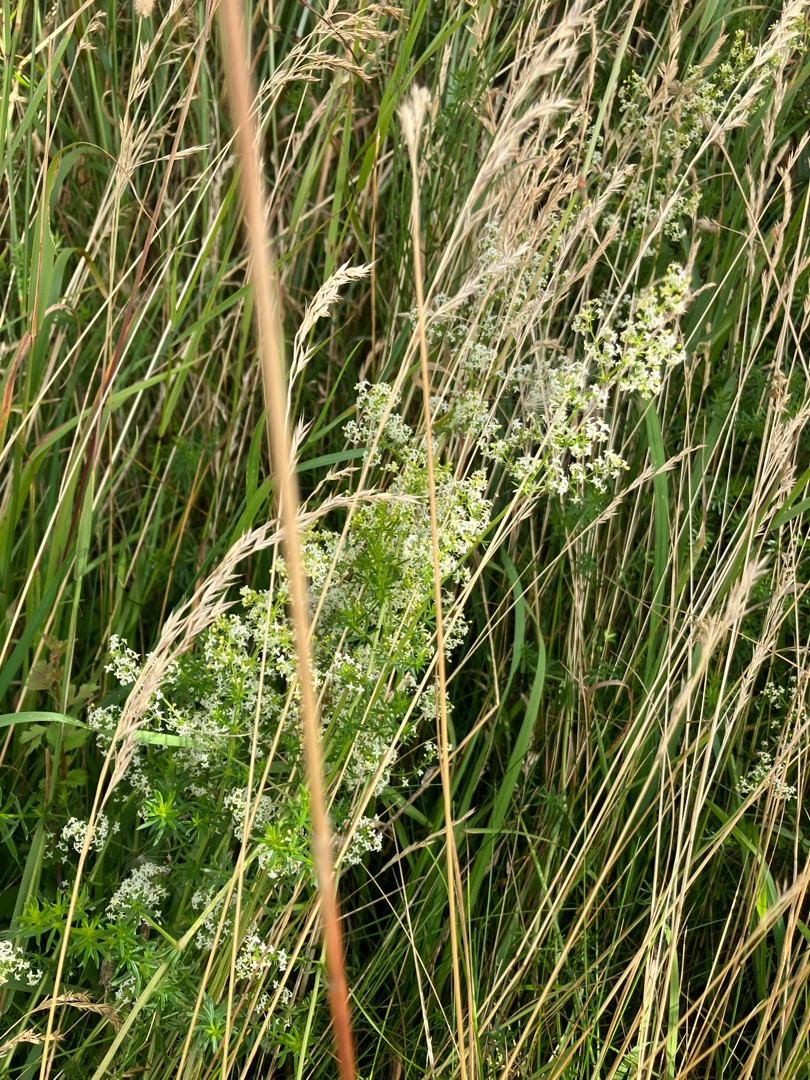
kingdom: Plantae
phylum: Tracheophyta
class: Magnoliopsida
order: Gentianales
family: Rubiaceae
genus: Galium
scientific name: Galium mollugo
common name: Hvid snerre
